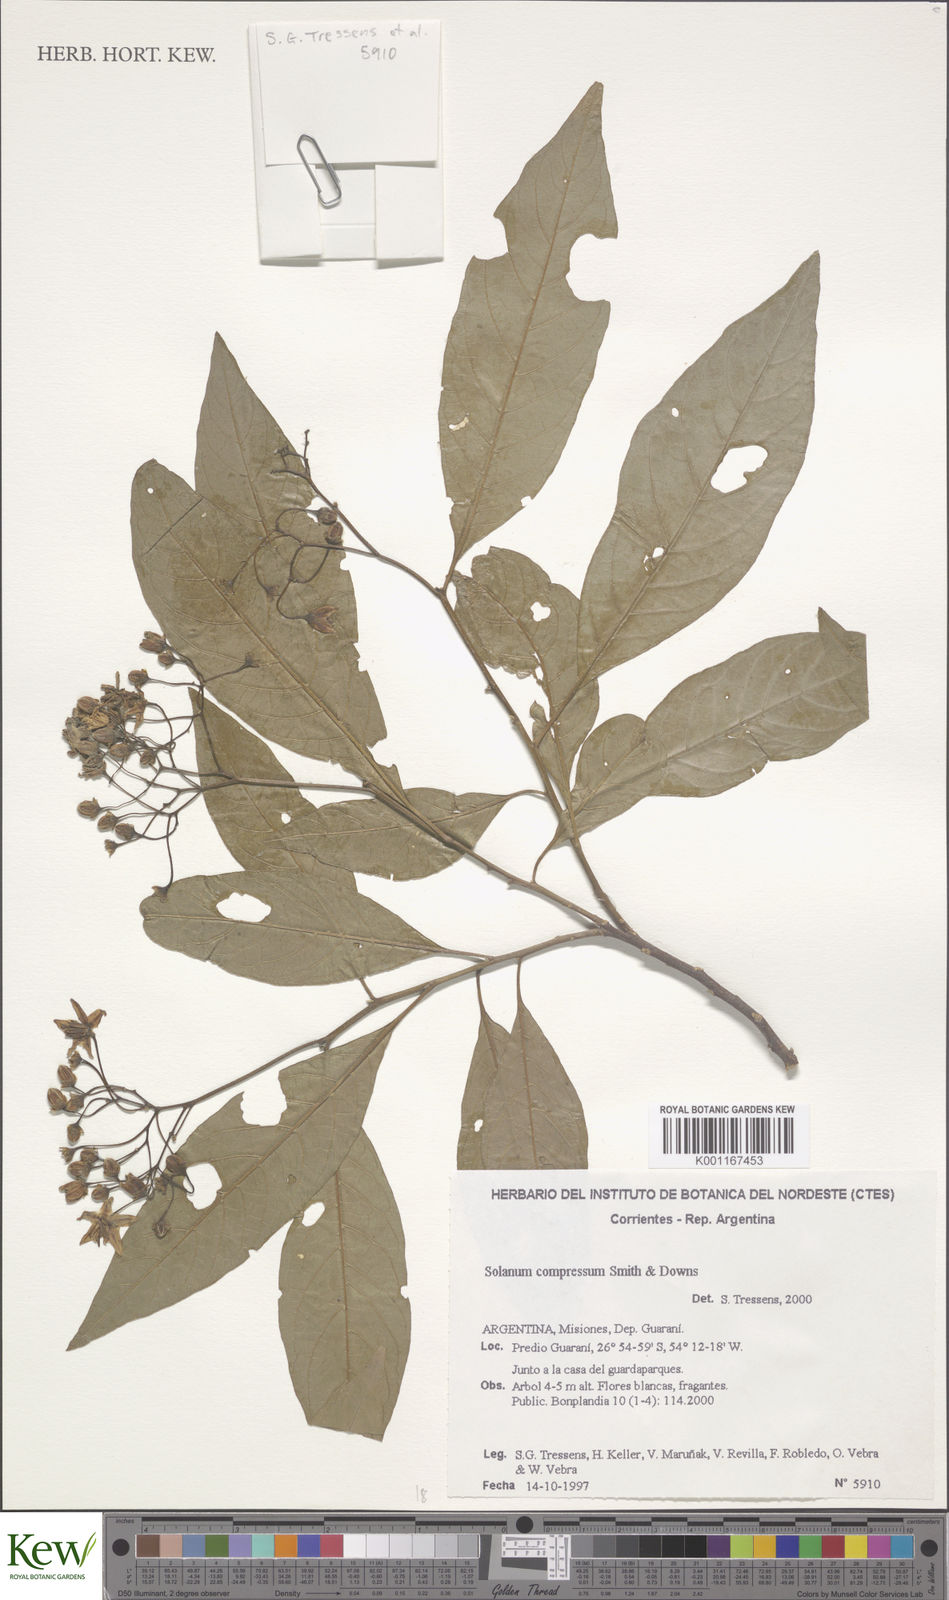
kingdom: Plantae
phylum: Tracheophyta
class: Magnoliopsida
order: Solanales
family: Solanaceae
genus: Solanum
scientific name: Solanum consimile
